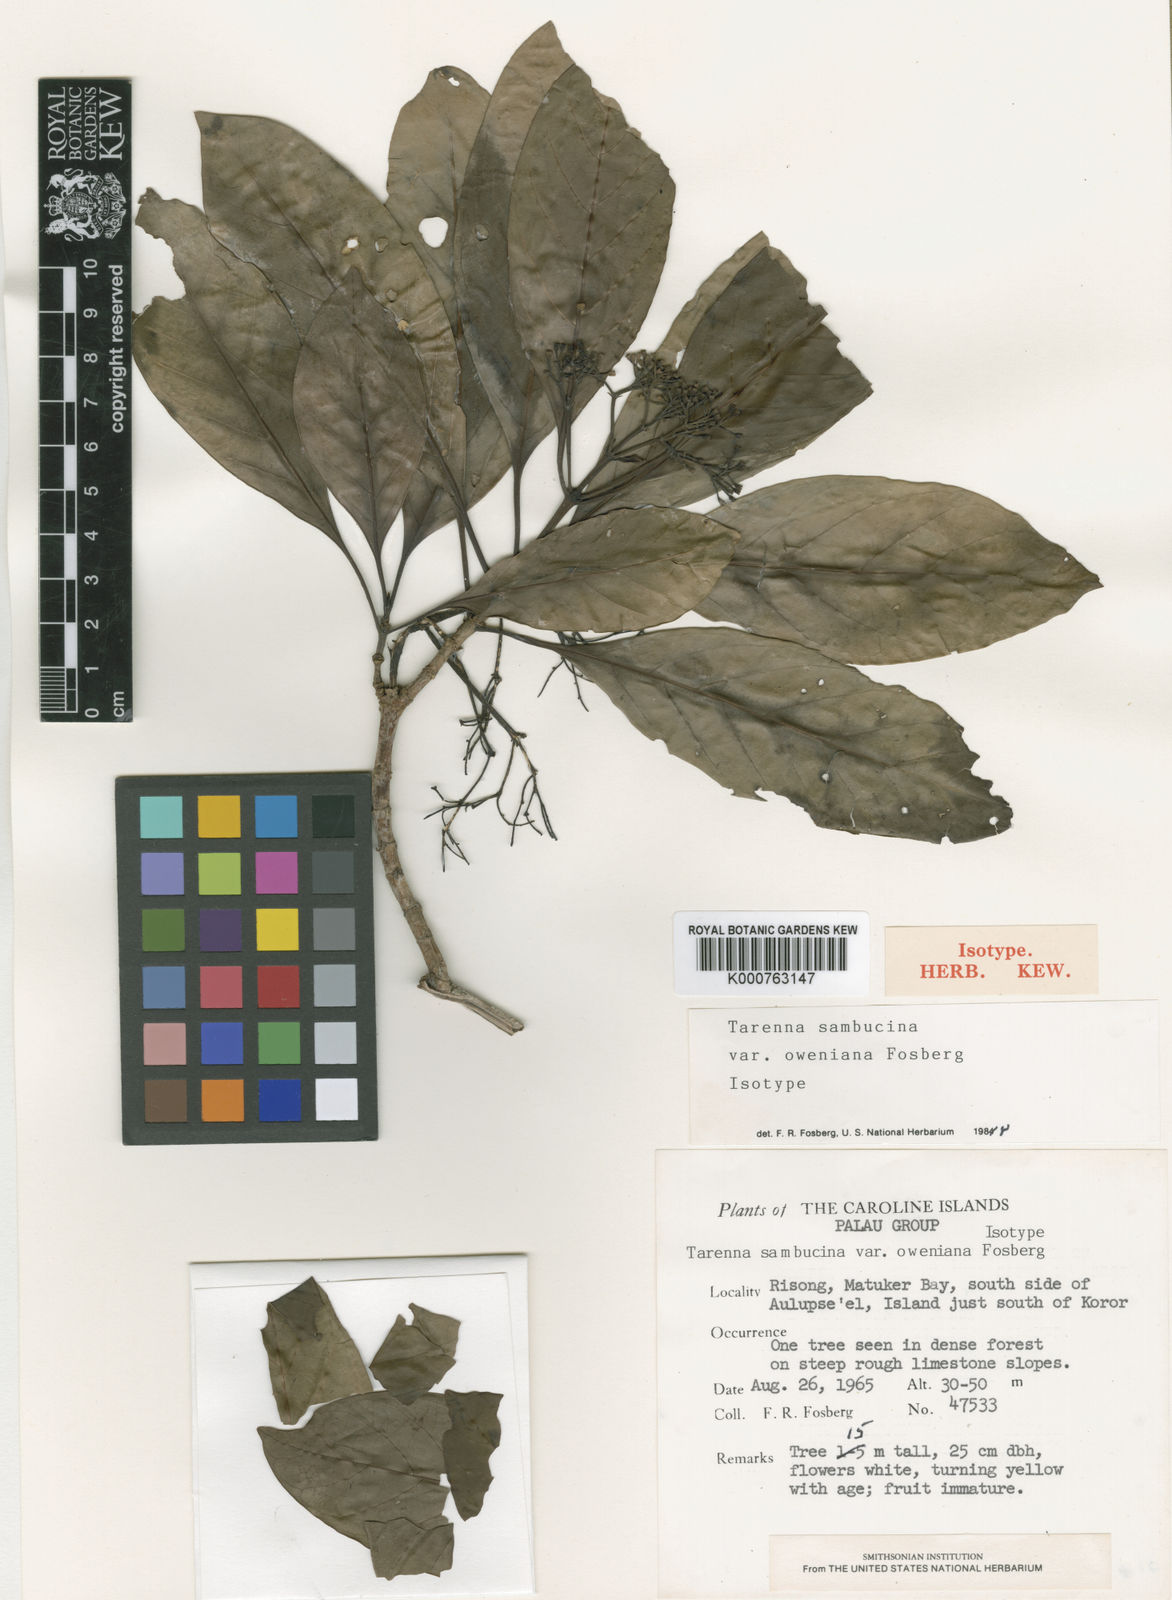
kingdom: Plantae
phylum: Tracheophyta
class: Magnoliopsida
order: Gentianales
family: Rubiaceae
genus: Tarenna
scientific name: Tarenna sambucina
